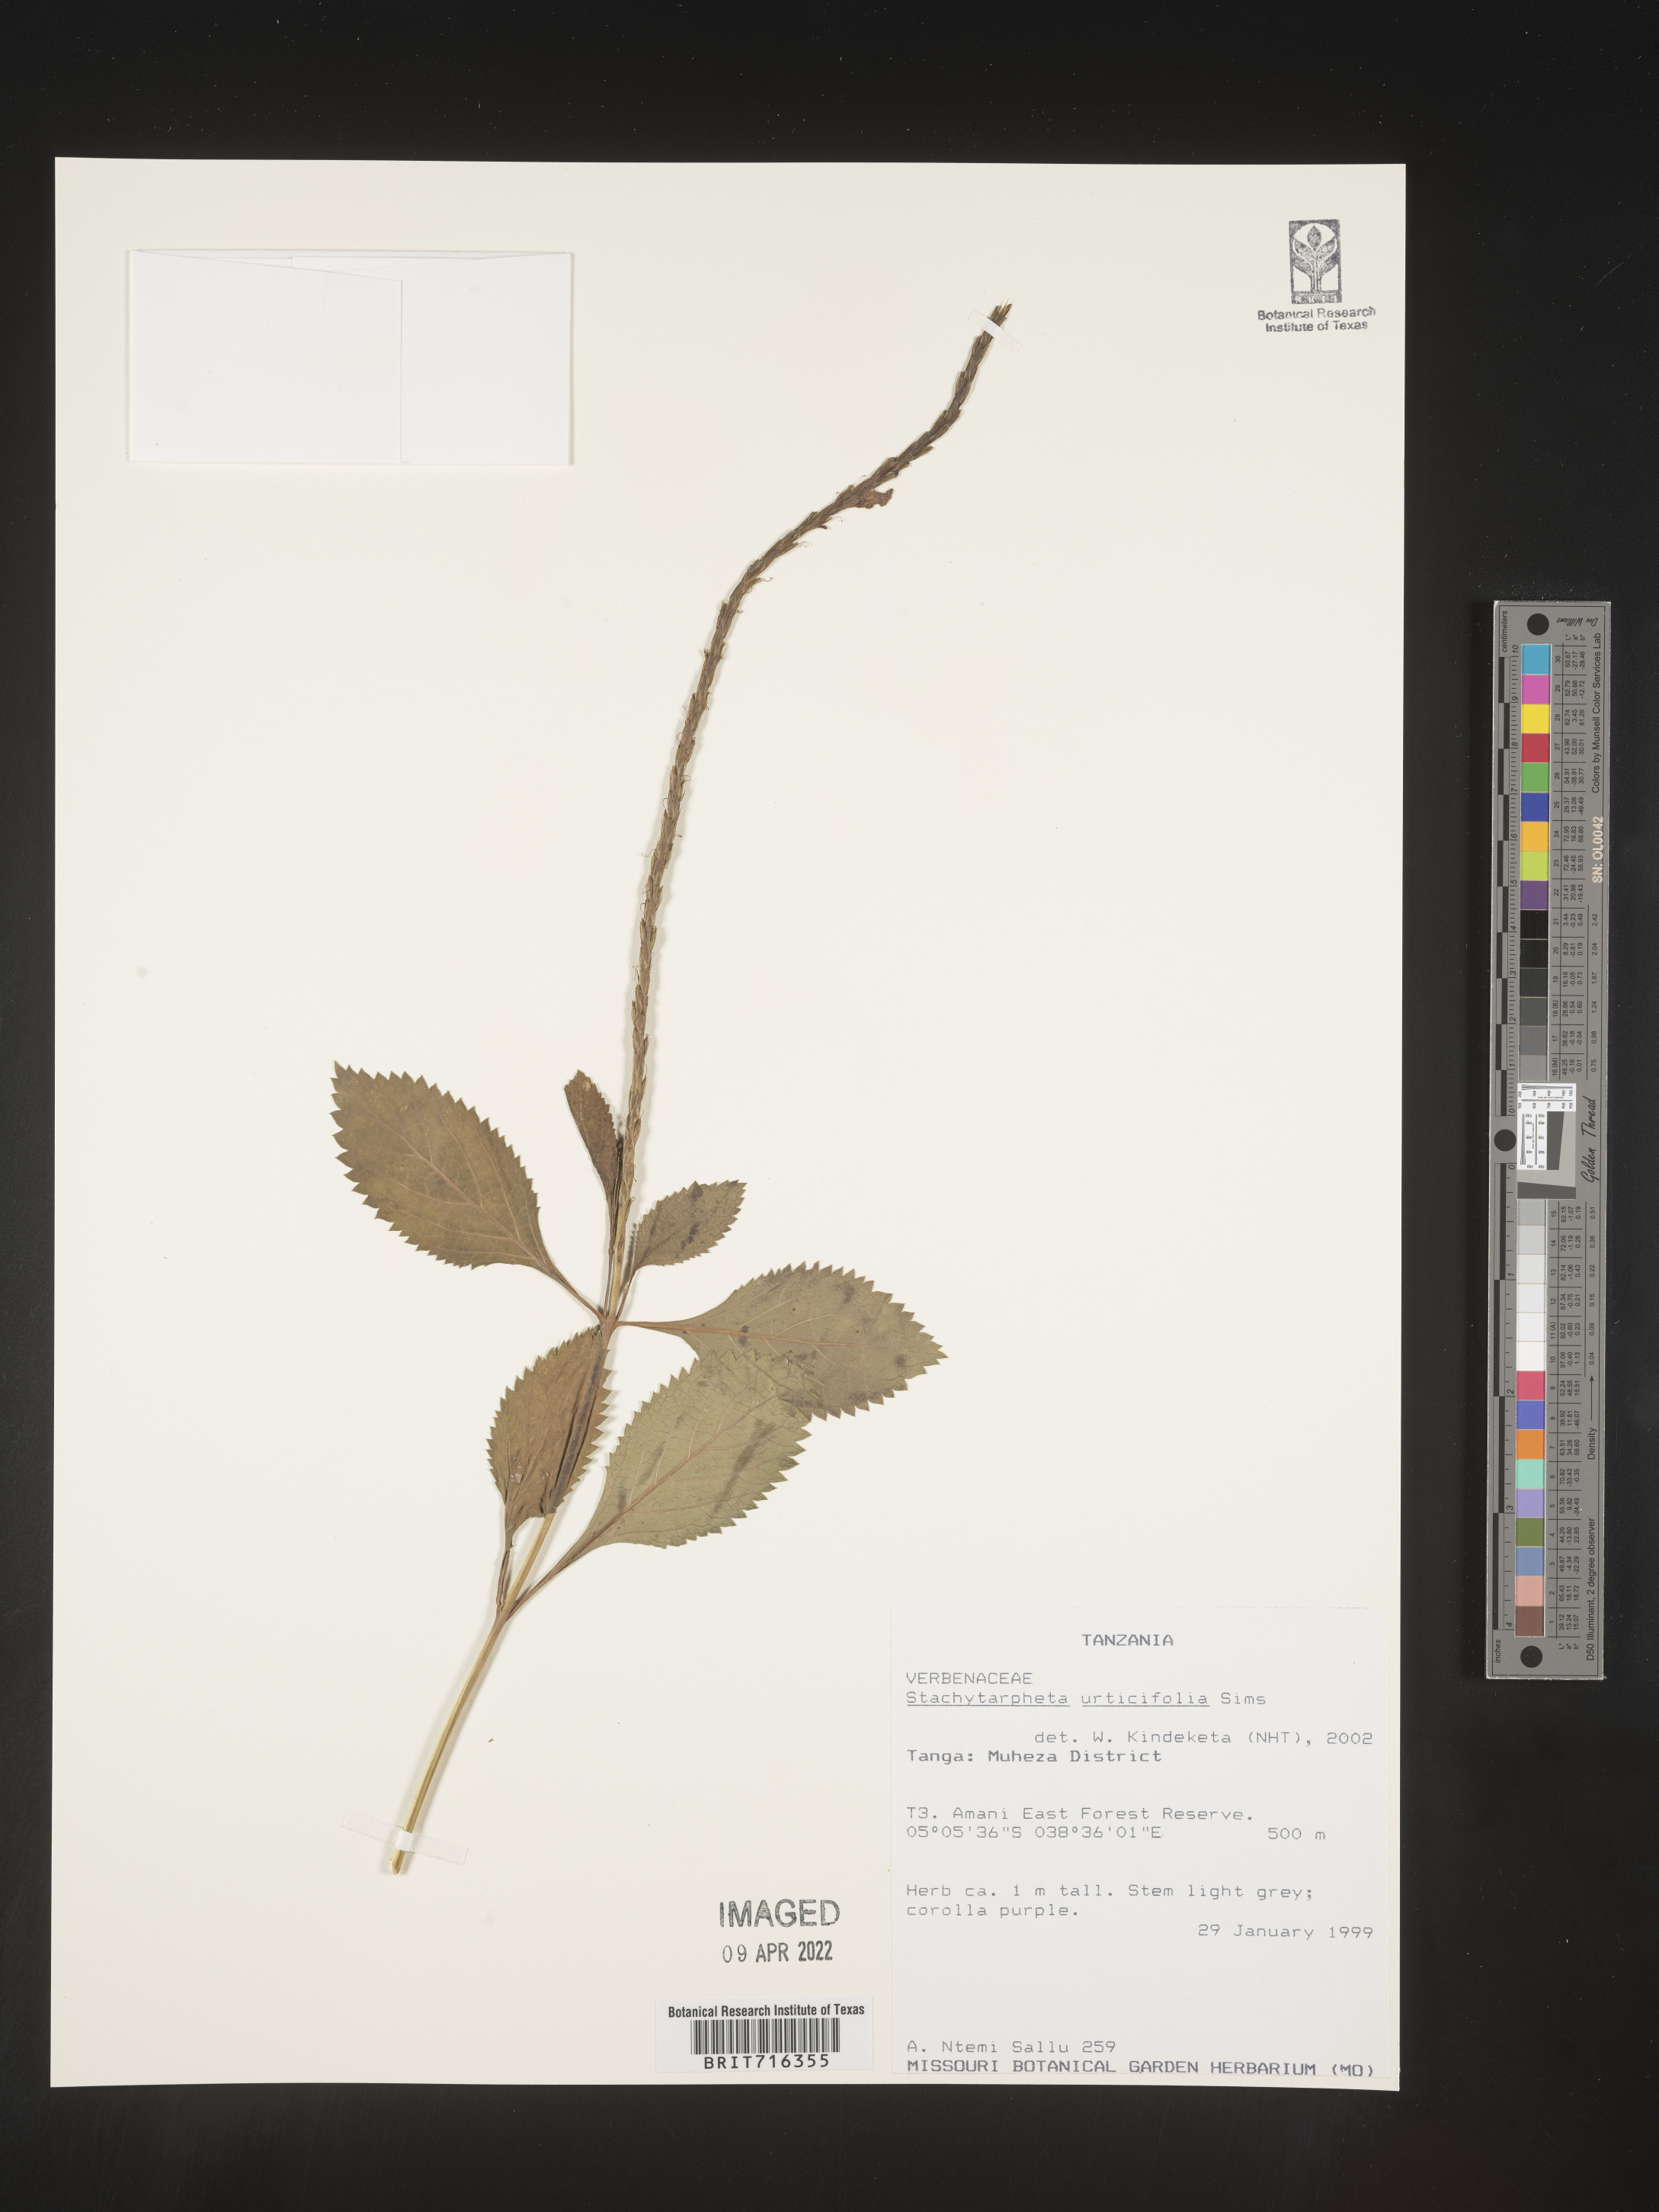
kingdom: Plantae
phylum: Tracheophyta
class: Magnoliopsida
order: Lamiales
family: Verbenaceae
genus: Stachytarpheta
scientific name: Stachytarpheta
